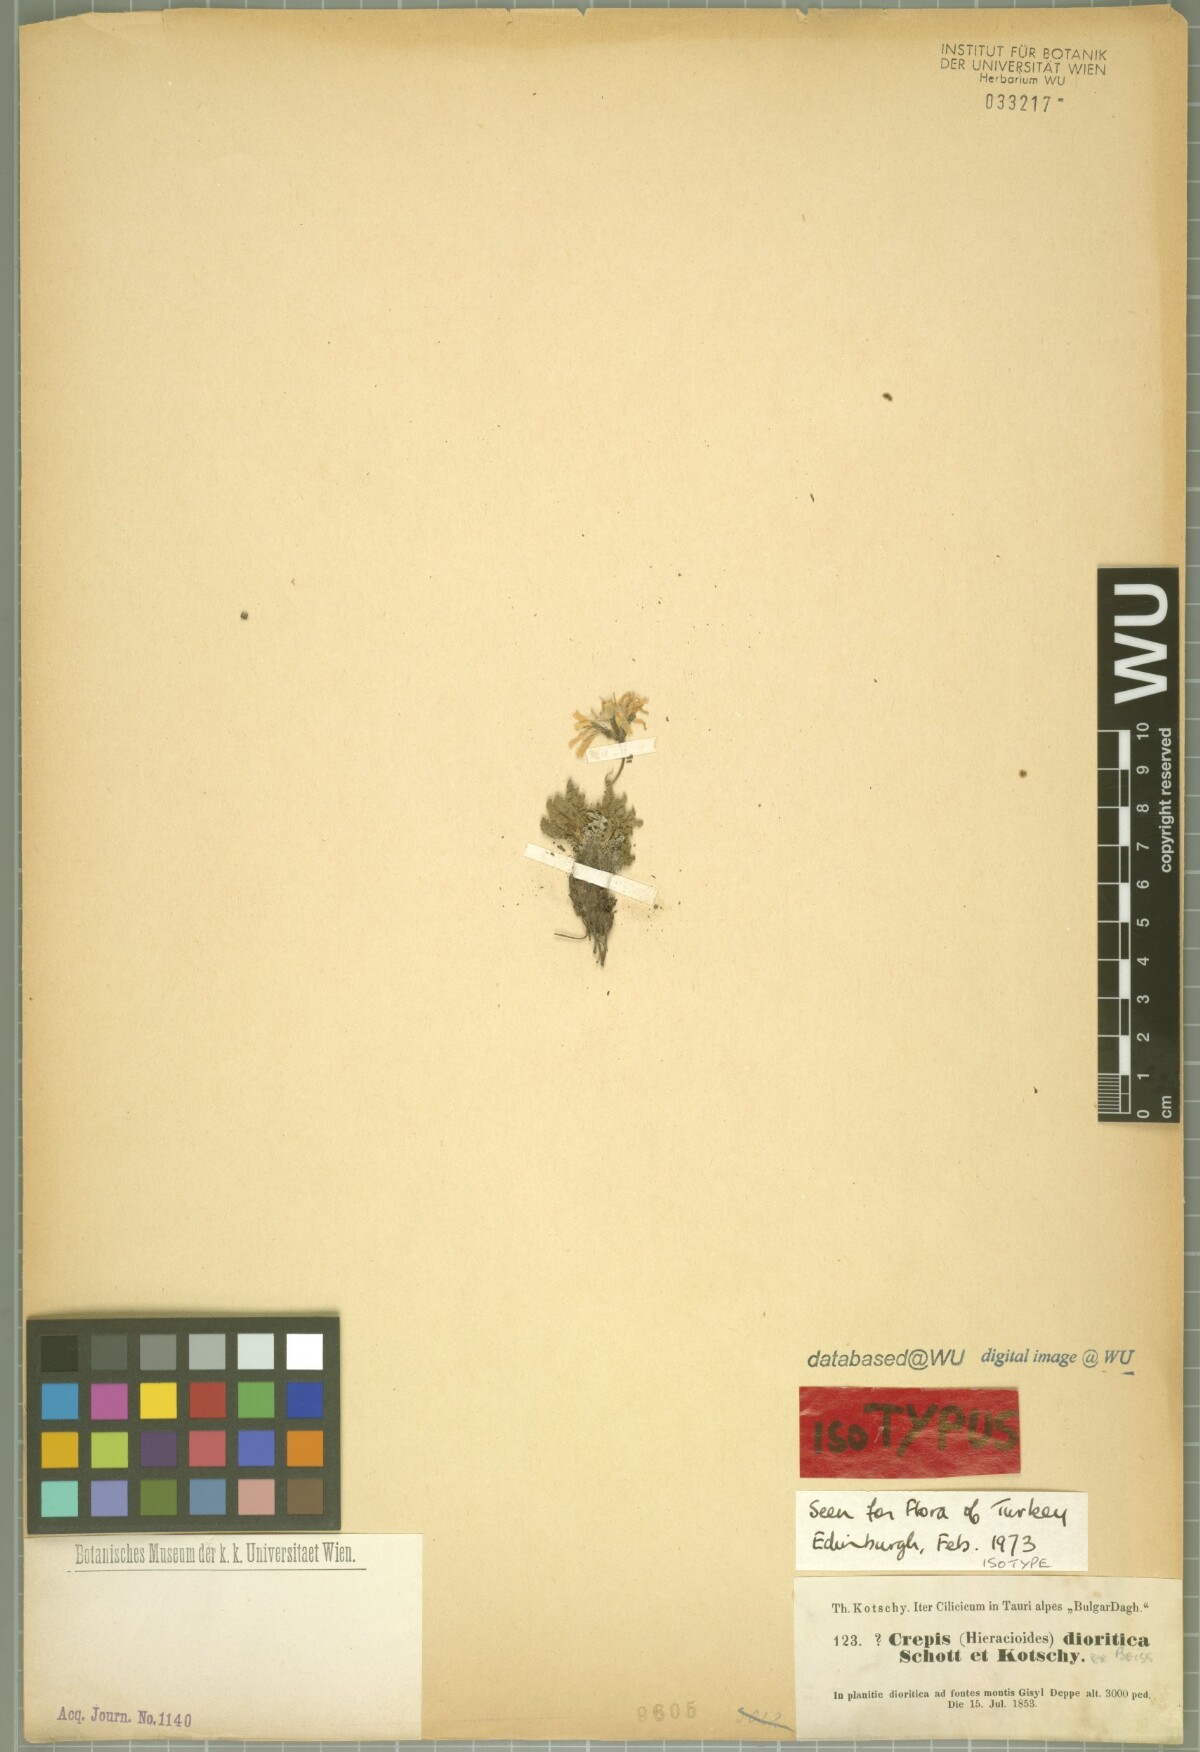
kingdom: Plantae
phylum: Tracheophyta
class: Magnoliopsida
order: Asterales
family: Asteraceae
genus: Crepis
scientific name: Crepis dioritica
